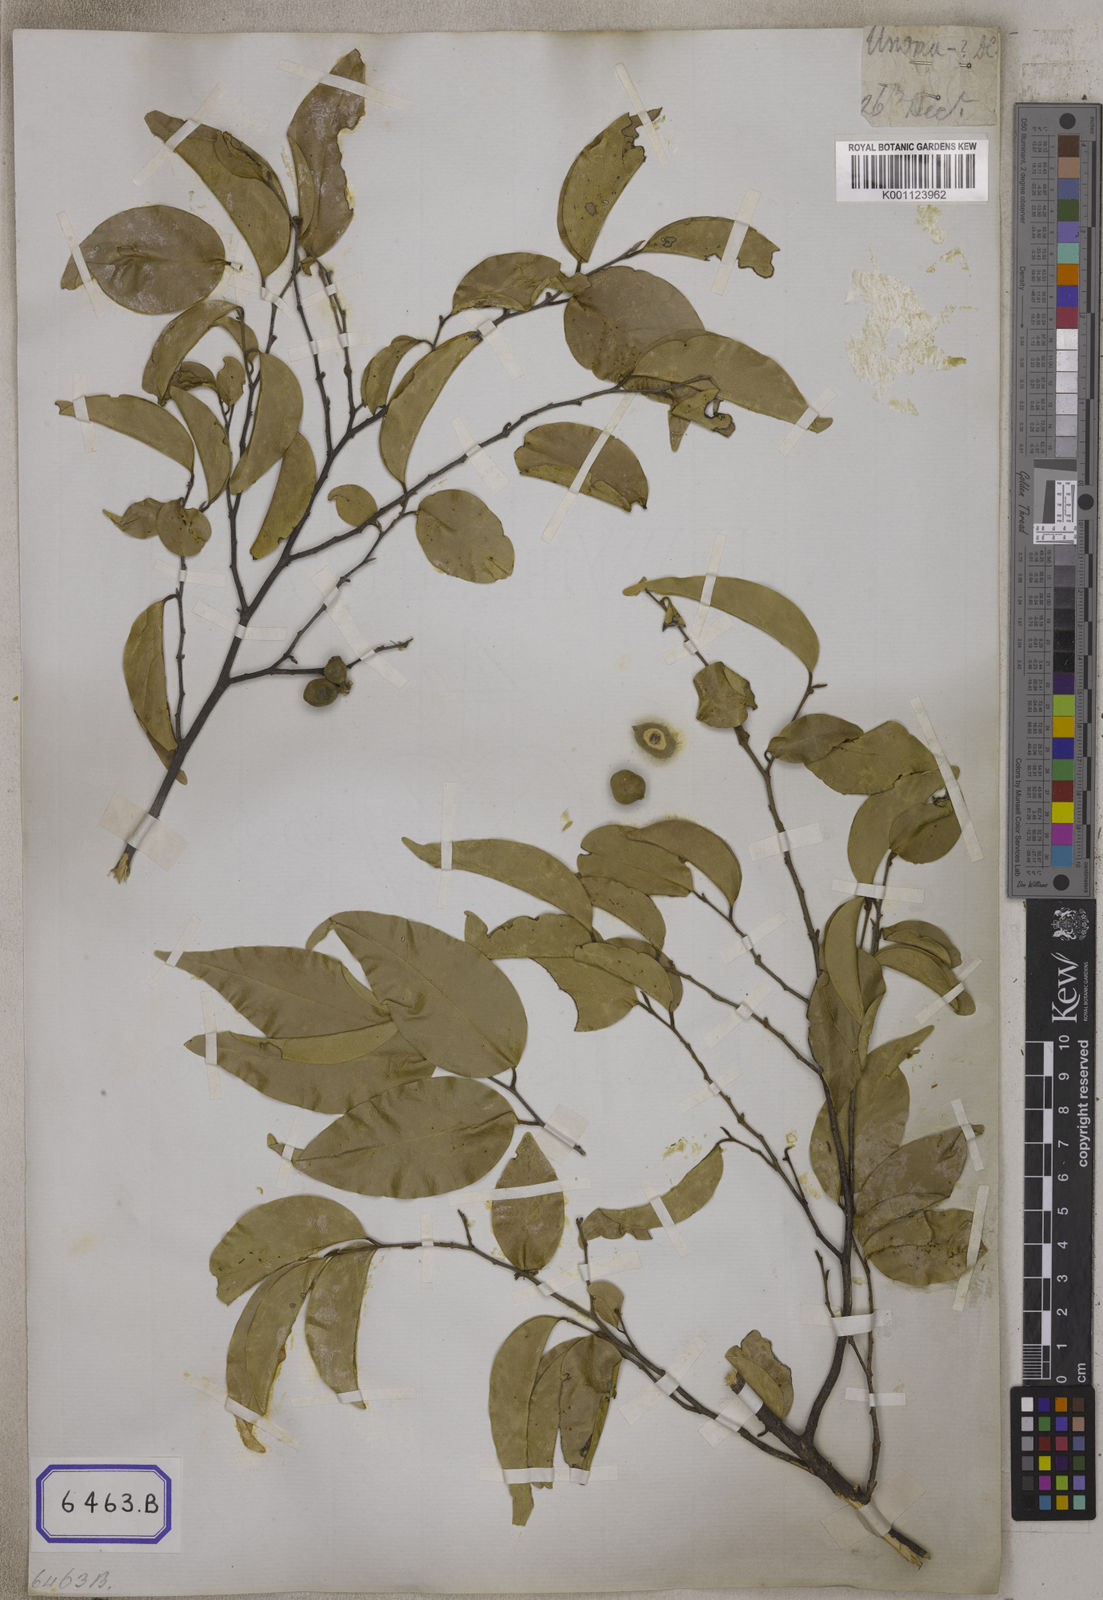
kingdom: Plantae
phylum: Tracheophyta
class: Magnoliopsida
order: Magnoliales
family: Annonaceae
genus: Mitrephora
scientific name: Mitrephora heyneana
